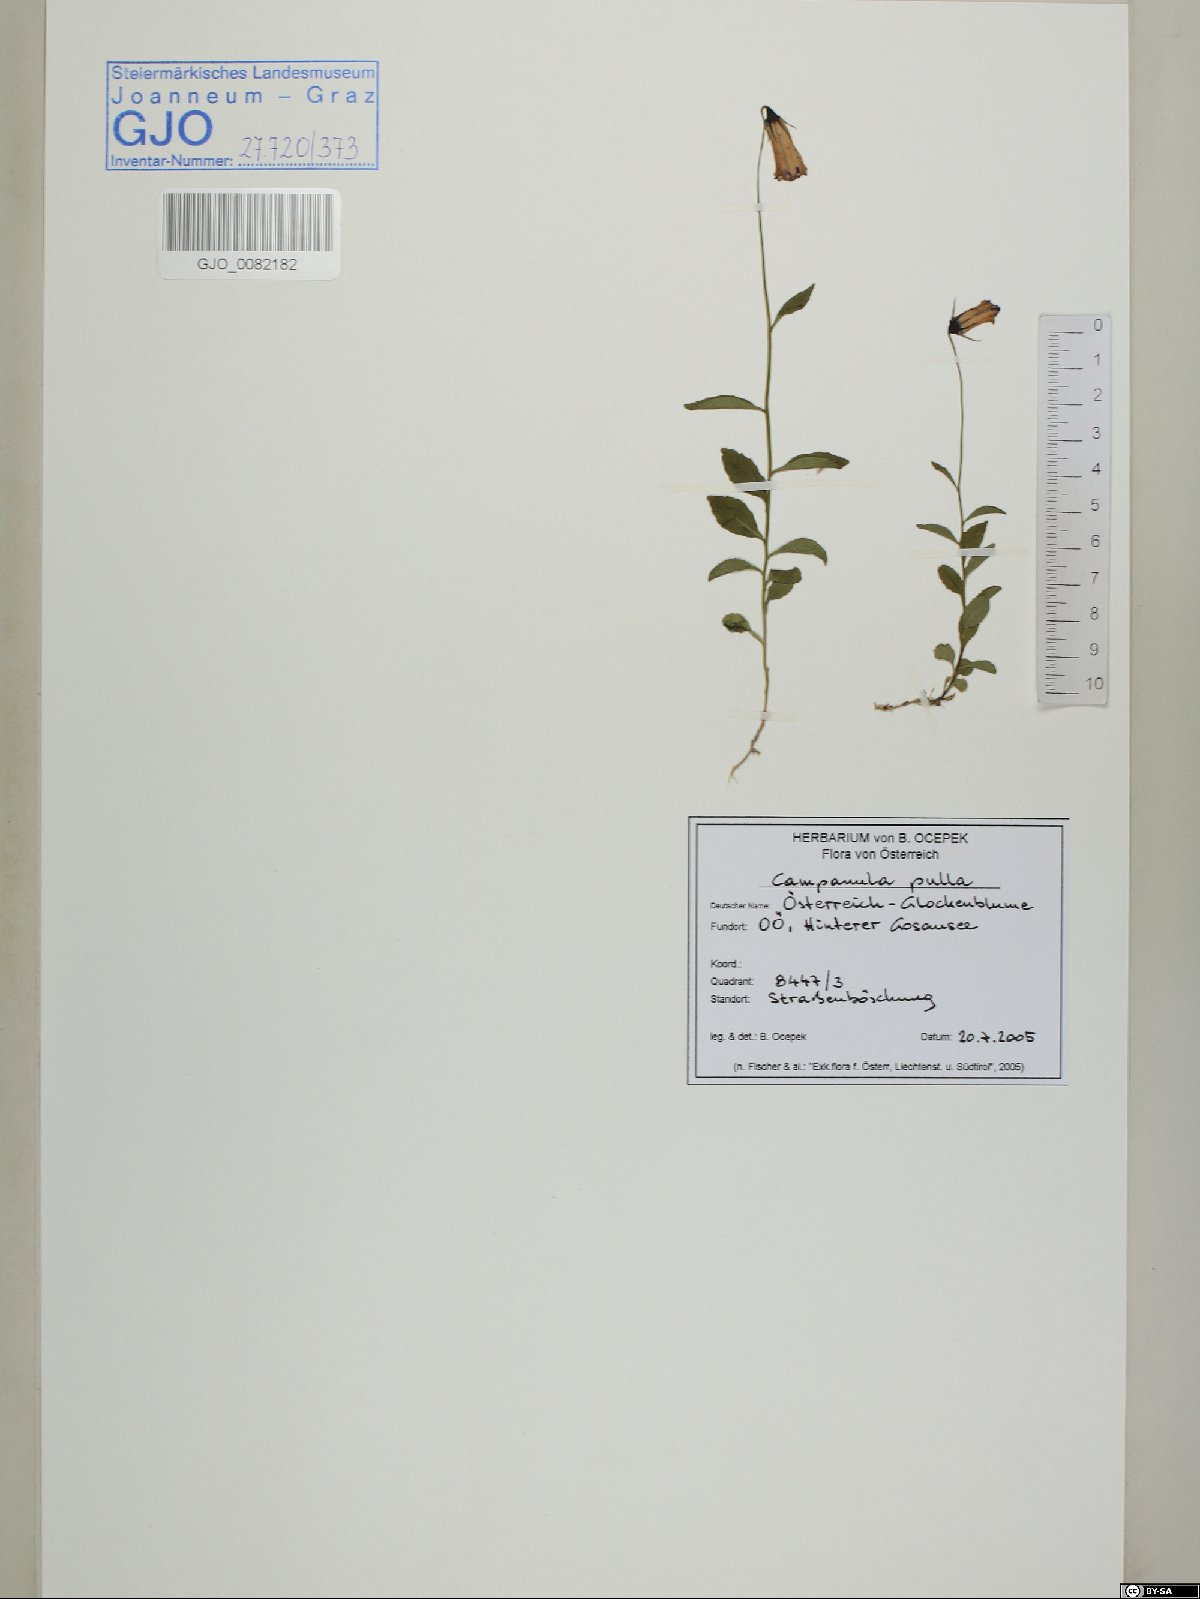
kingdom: Plantae
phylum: Tracheophyta
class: Magnoliopsida
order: Asterales
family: Campanulaceae
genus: Campanula
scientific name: Campanula pulla
